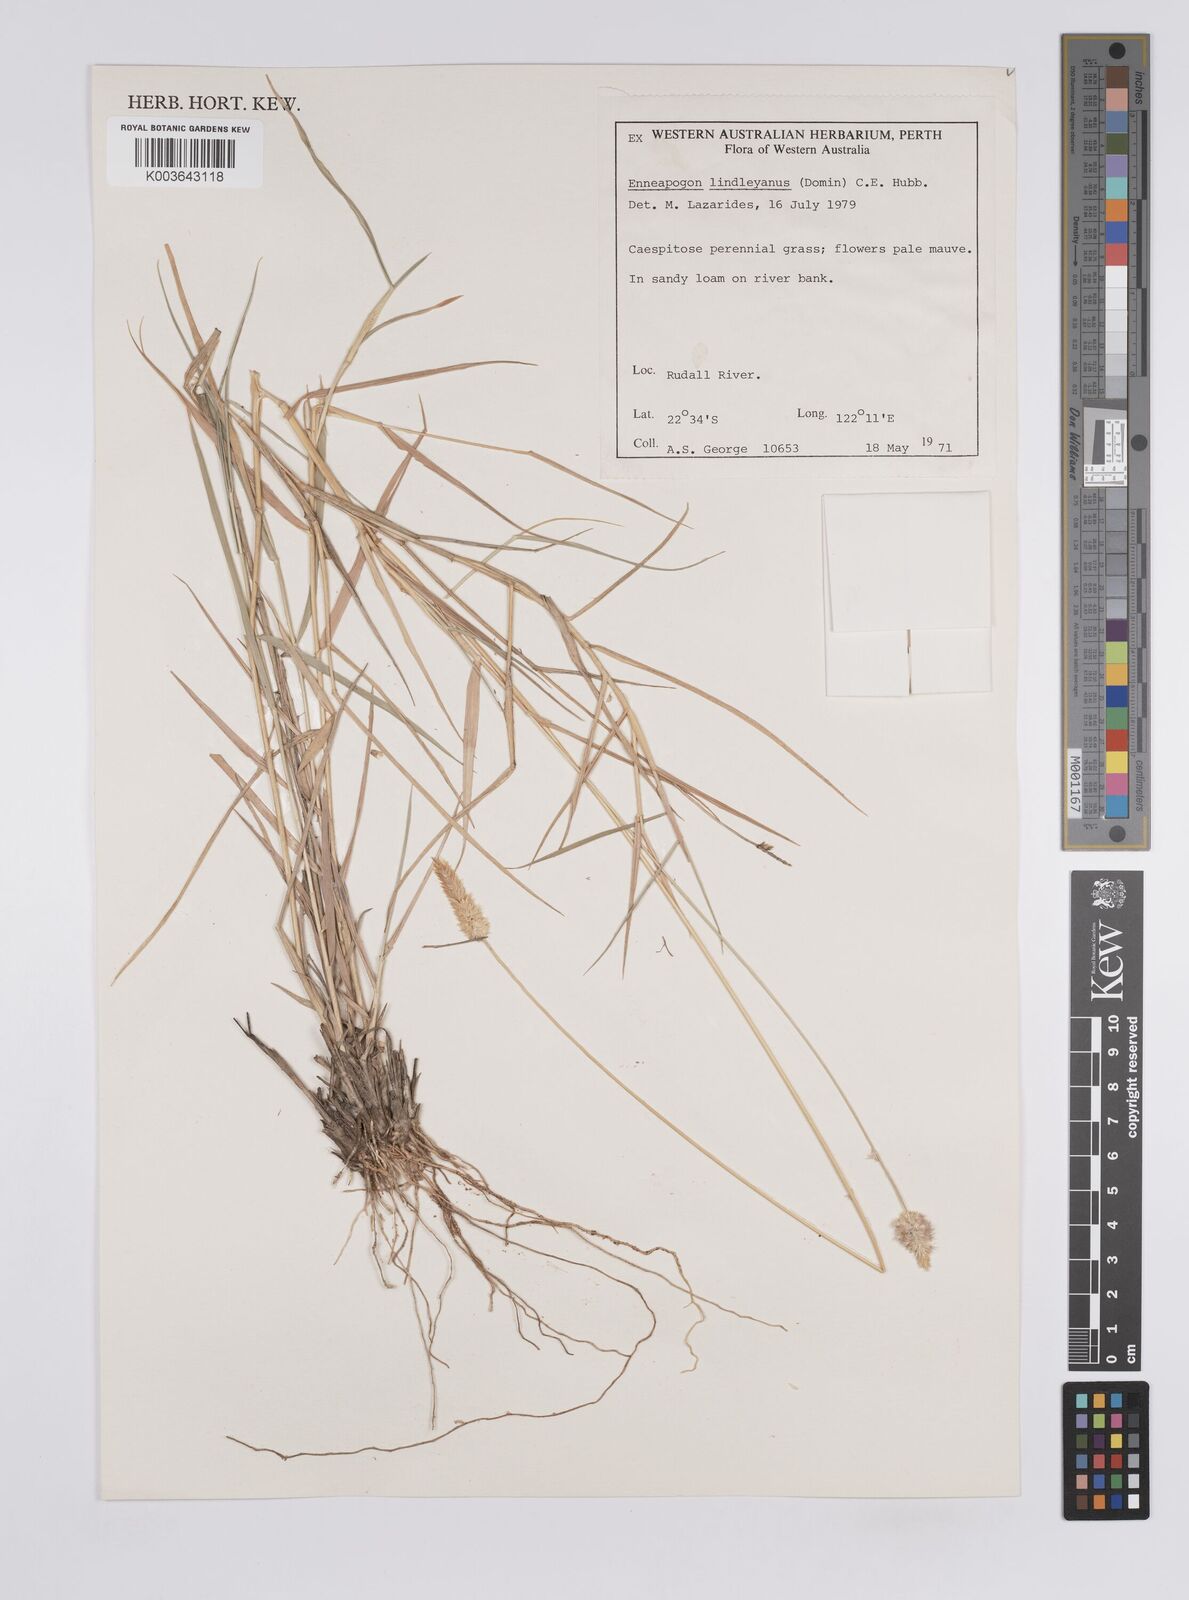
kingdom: Plantae
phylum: Tracheophyta
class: Liliopsida
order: Poales
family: Poaceae
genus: Enneapogon
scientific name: Enneapogon lindleyanus
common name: Conetop nineawn
